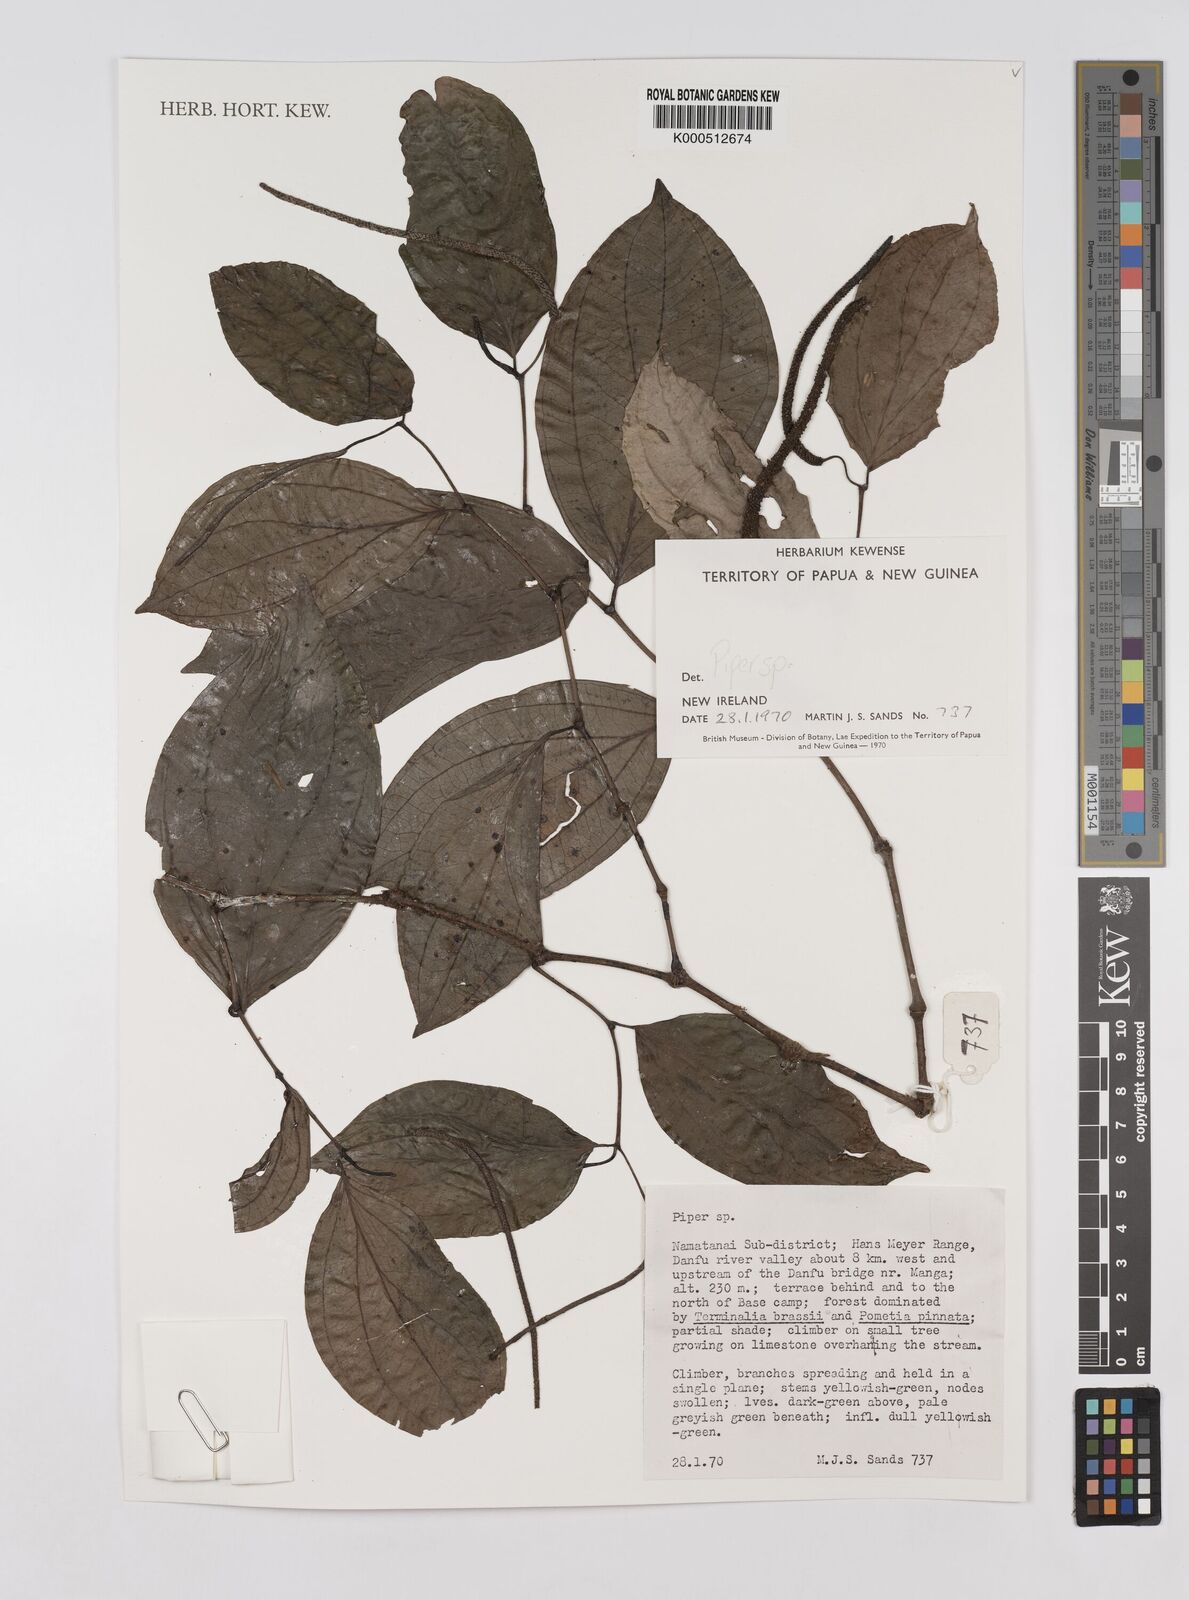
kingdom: Plantae
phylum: Tracheophyta
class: Magnoliopsida
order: Piperales
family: Piperaceae
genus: Piper
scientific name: Piper
